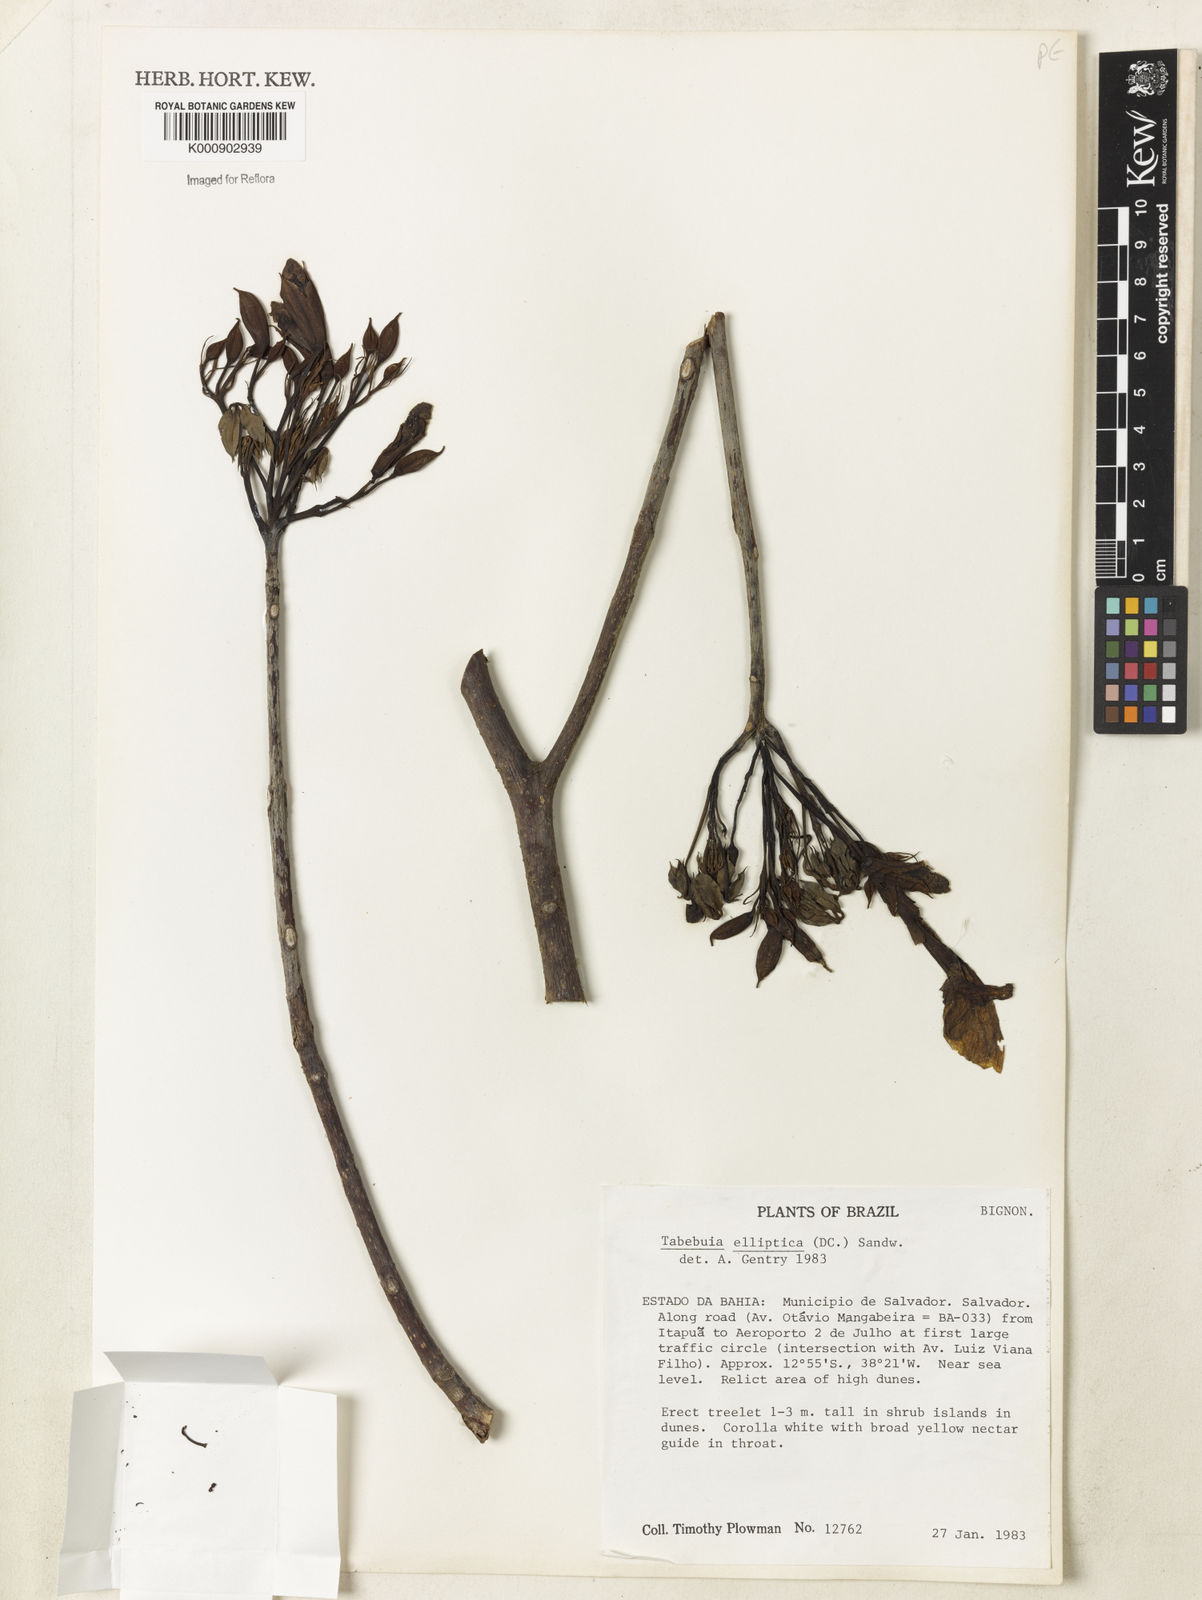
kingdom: Plantae
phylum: Tracheophyta
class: Magnoliopsida
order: Lamiales
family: Bignoniaceae
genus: Tabebuia
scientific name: Tabebuia elliptica
